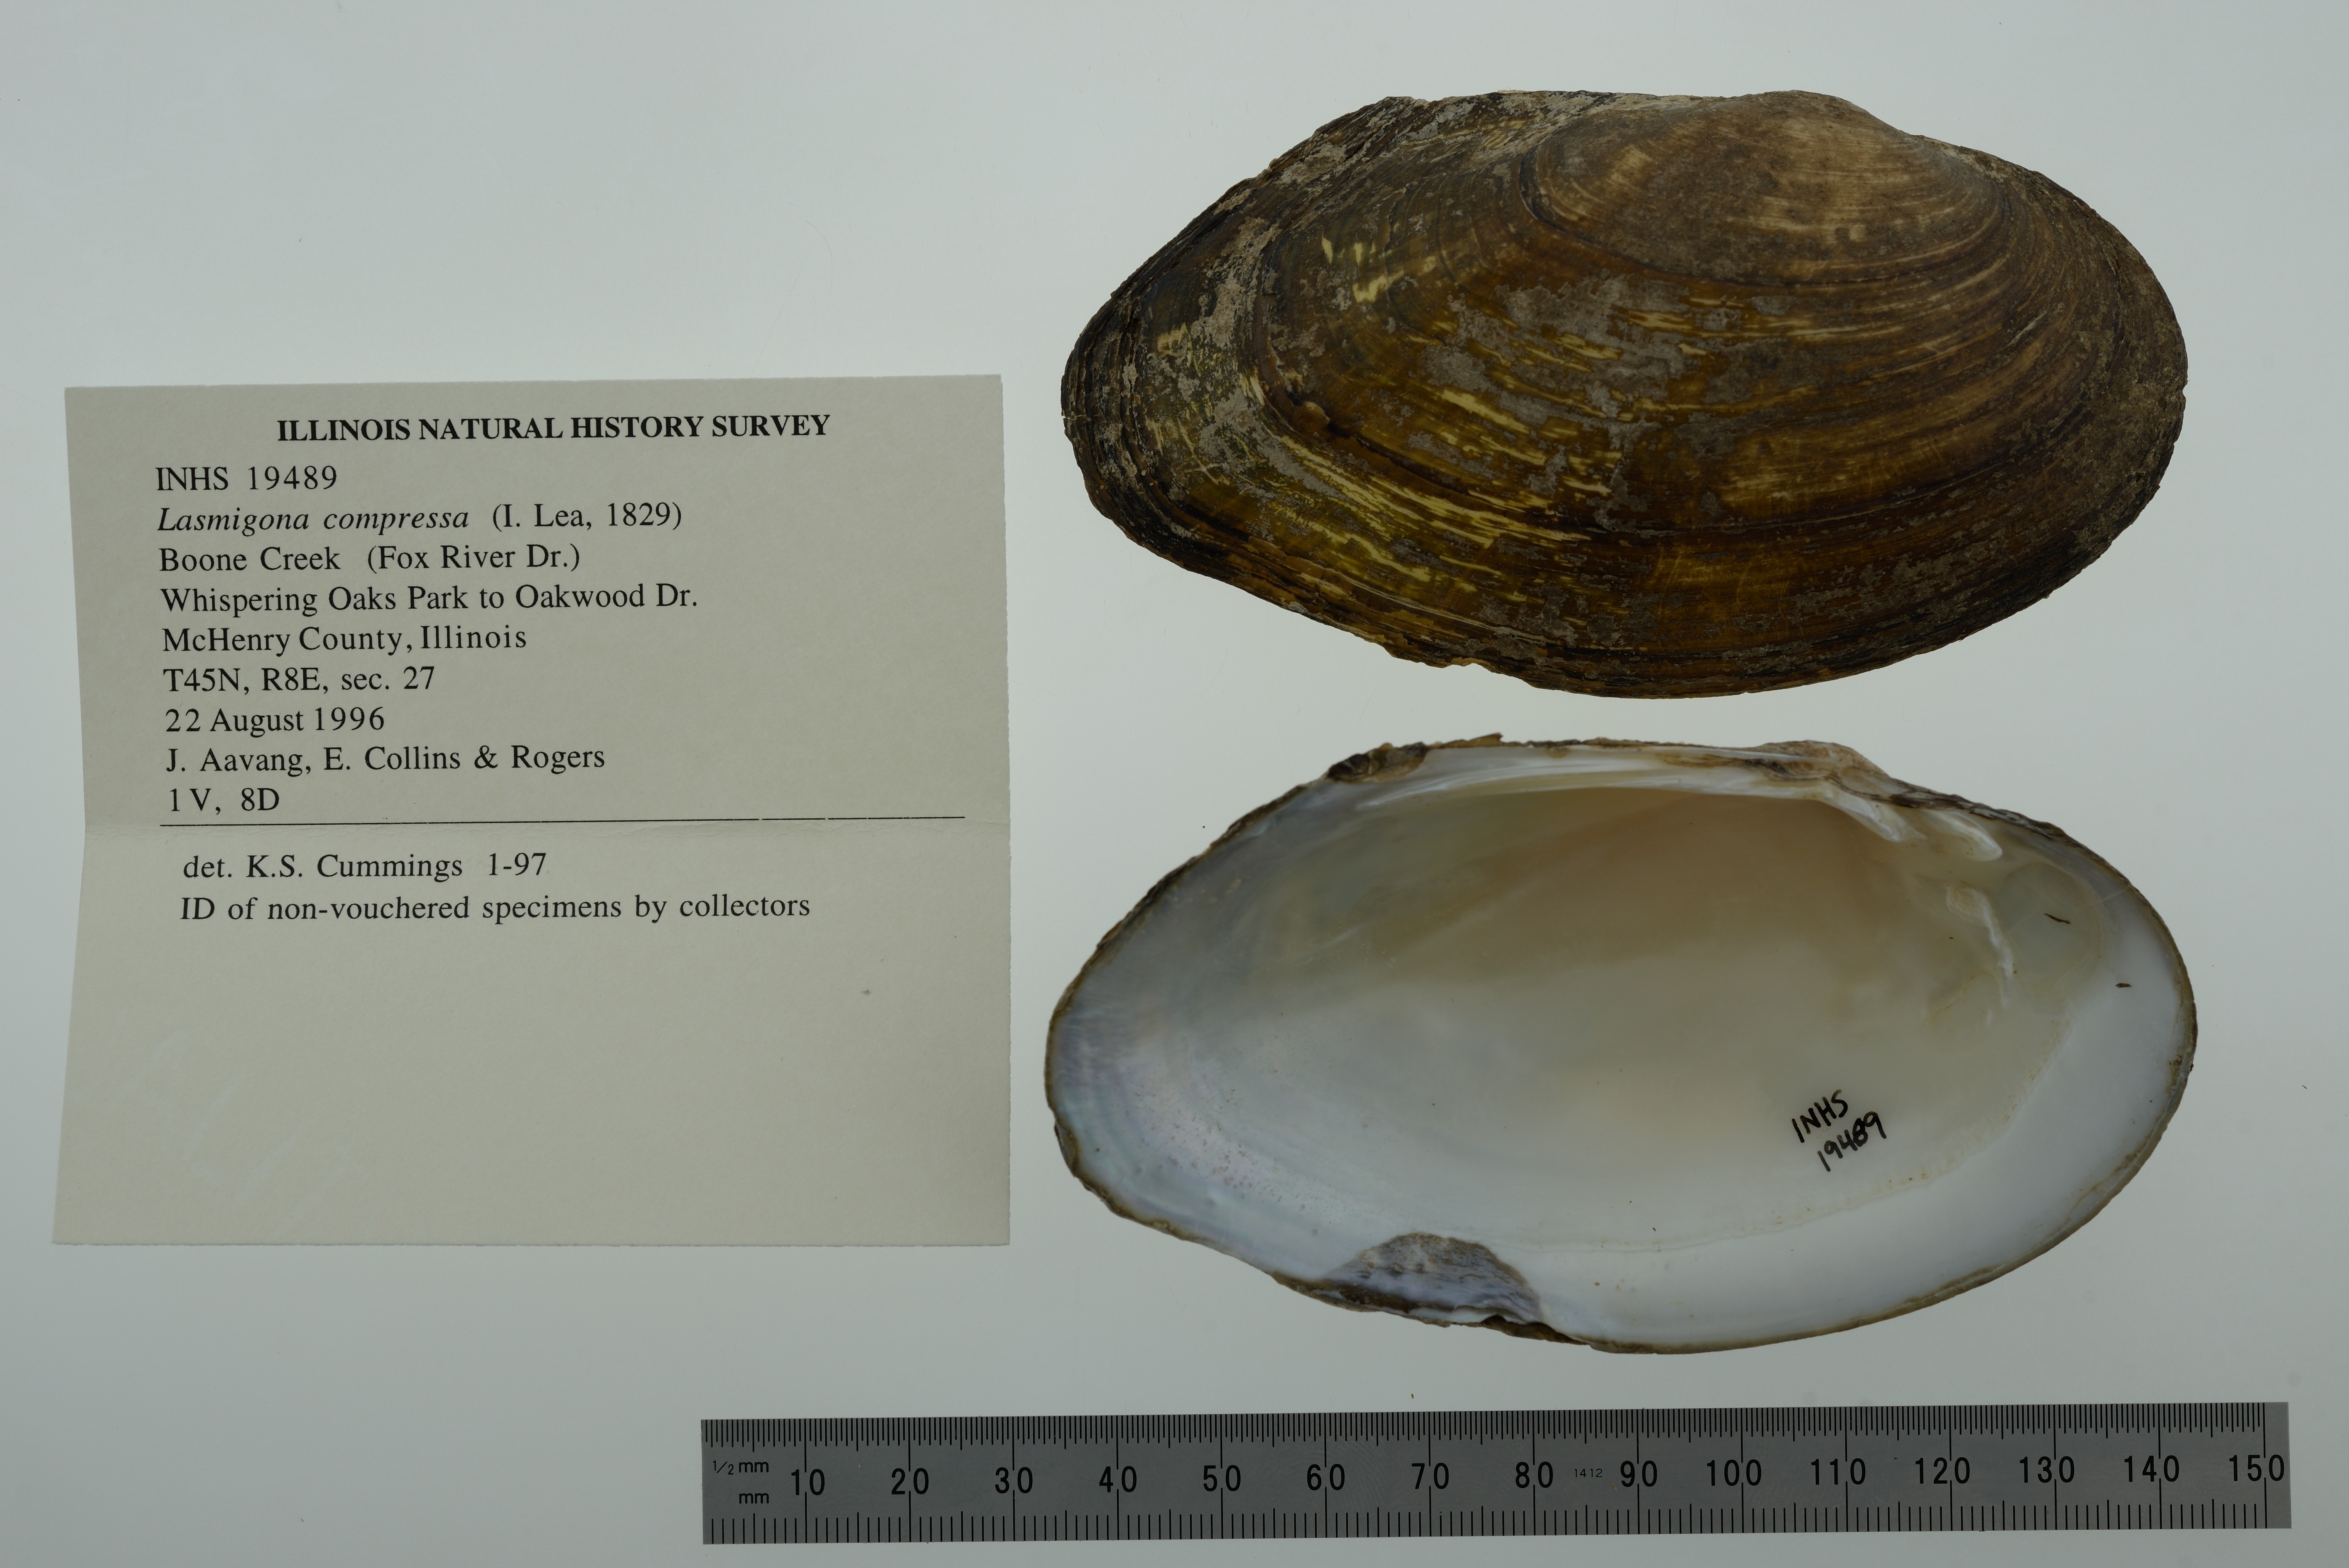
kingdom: Animalia
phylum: Mollusca
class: Bivalvia
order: Unionida
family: Unionidae
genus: Lasmigona
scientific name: Lasmigona compressa
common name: Creek heelsplitter
